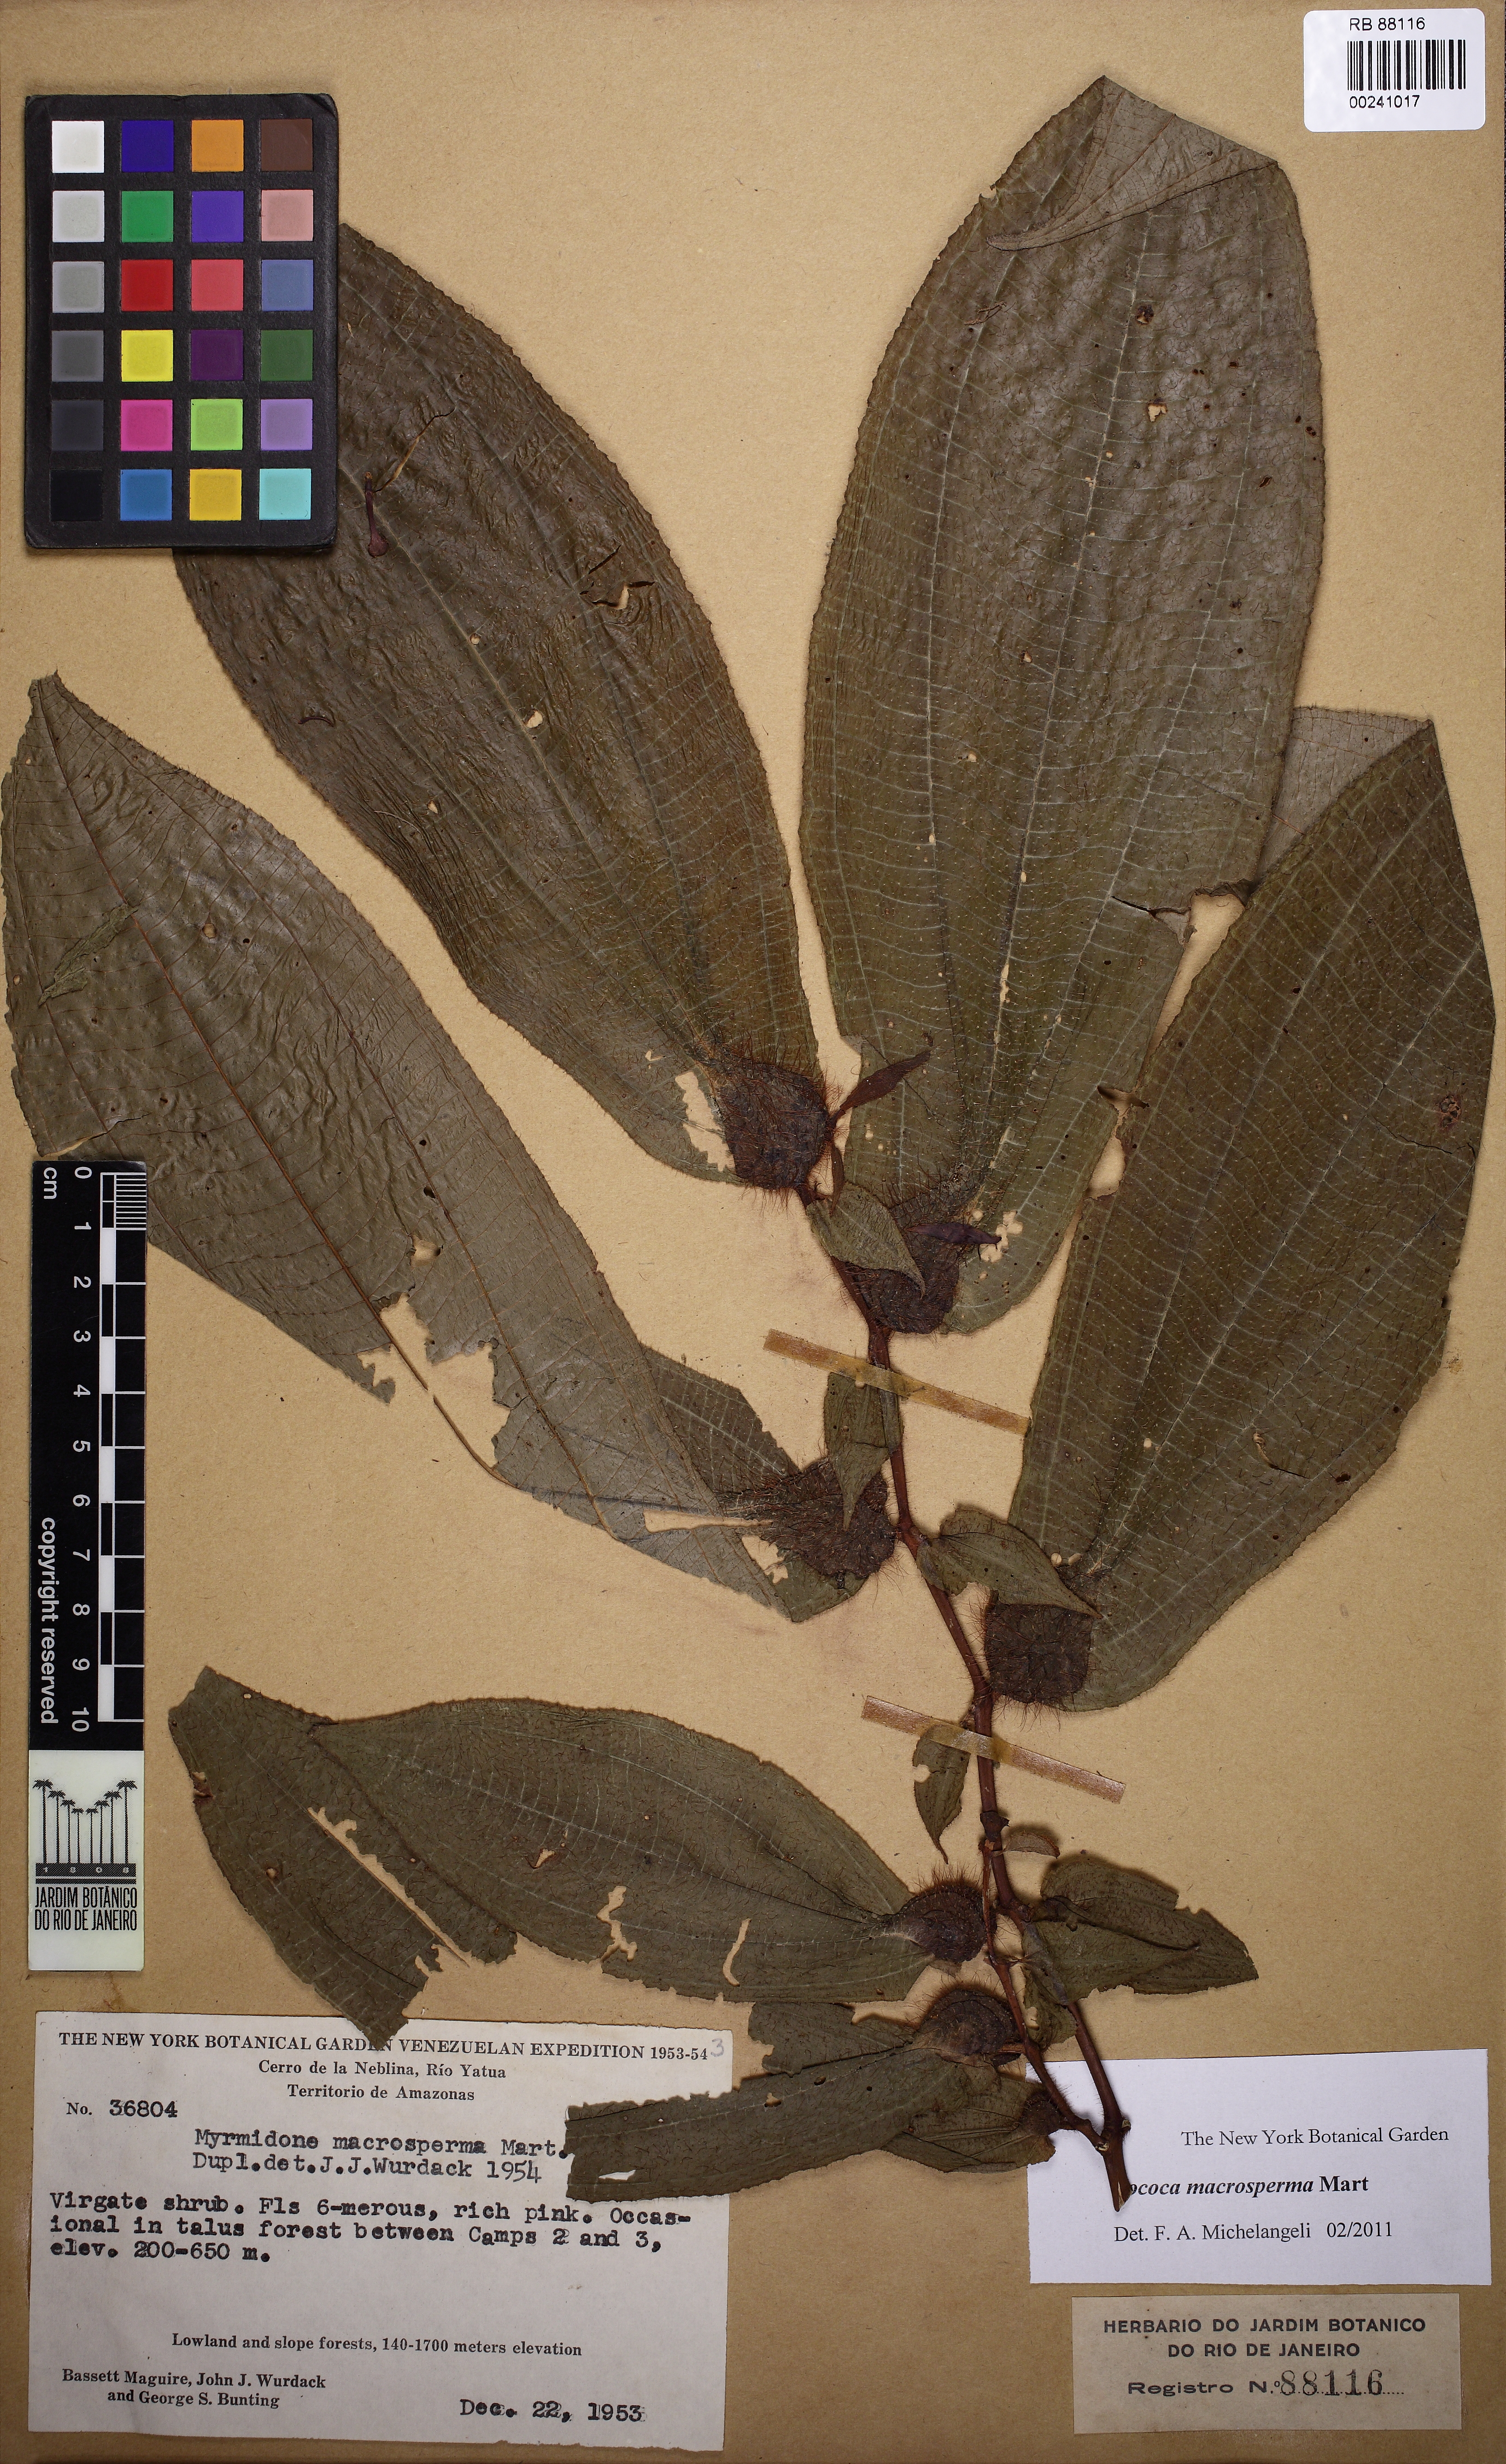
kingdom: Plantae
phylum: Tracheophyta
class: Magnoliopsida
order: Myrtales
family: Melastomataceae
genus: Miconia
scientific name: Miconia macrosperma
